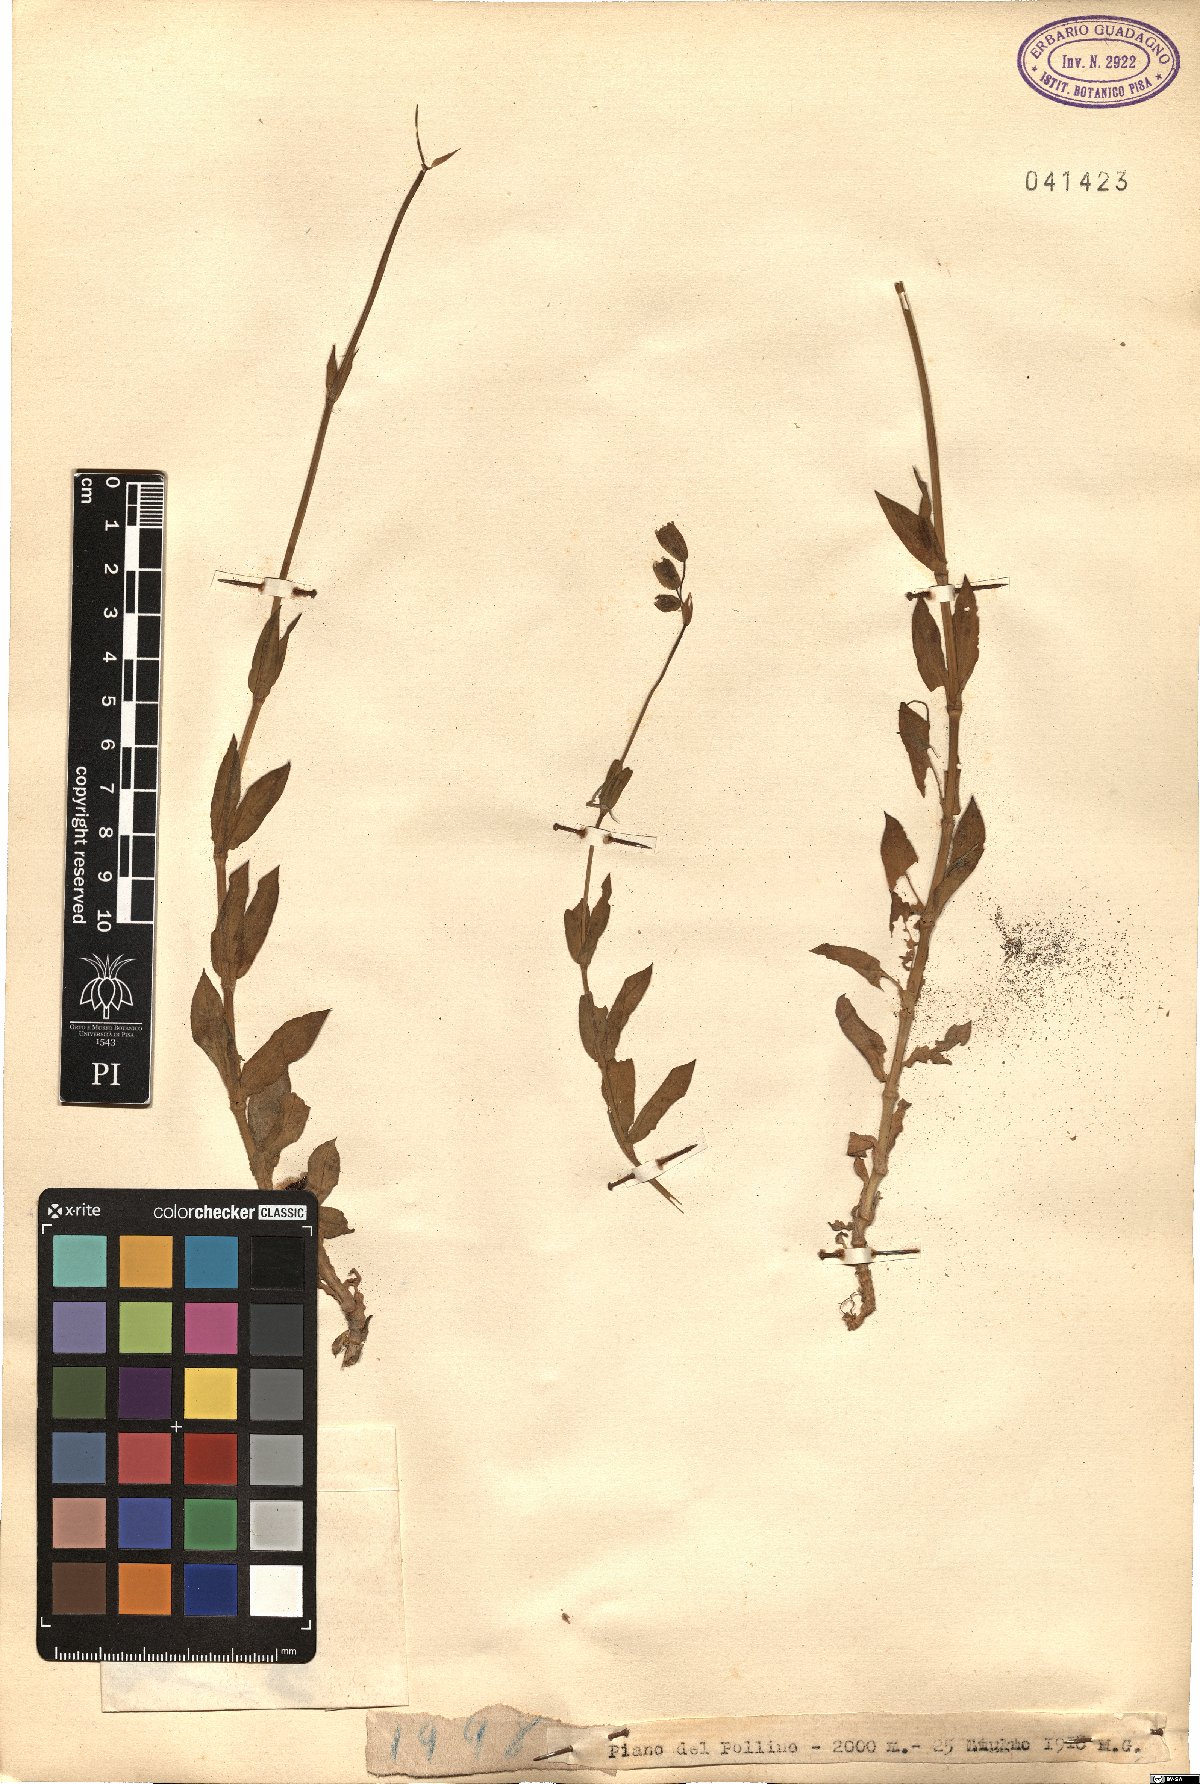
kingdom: Plantae
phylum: Tracheophyta
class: Magnoliopsida
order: Caryophyllales
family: Caryophyllaceae
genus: Silene
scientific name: Silene
